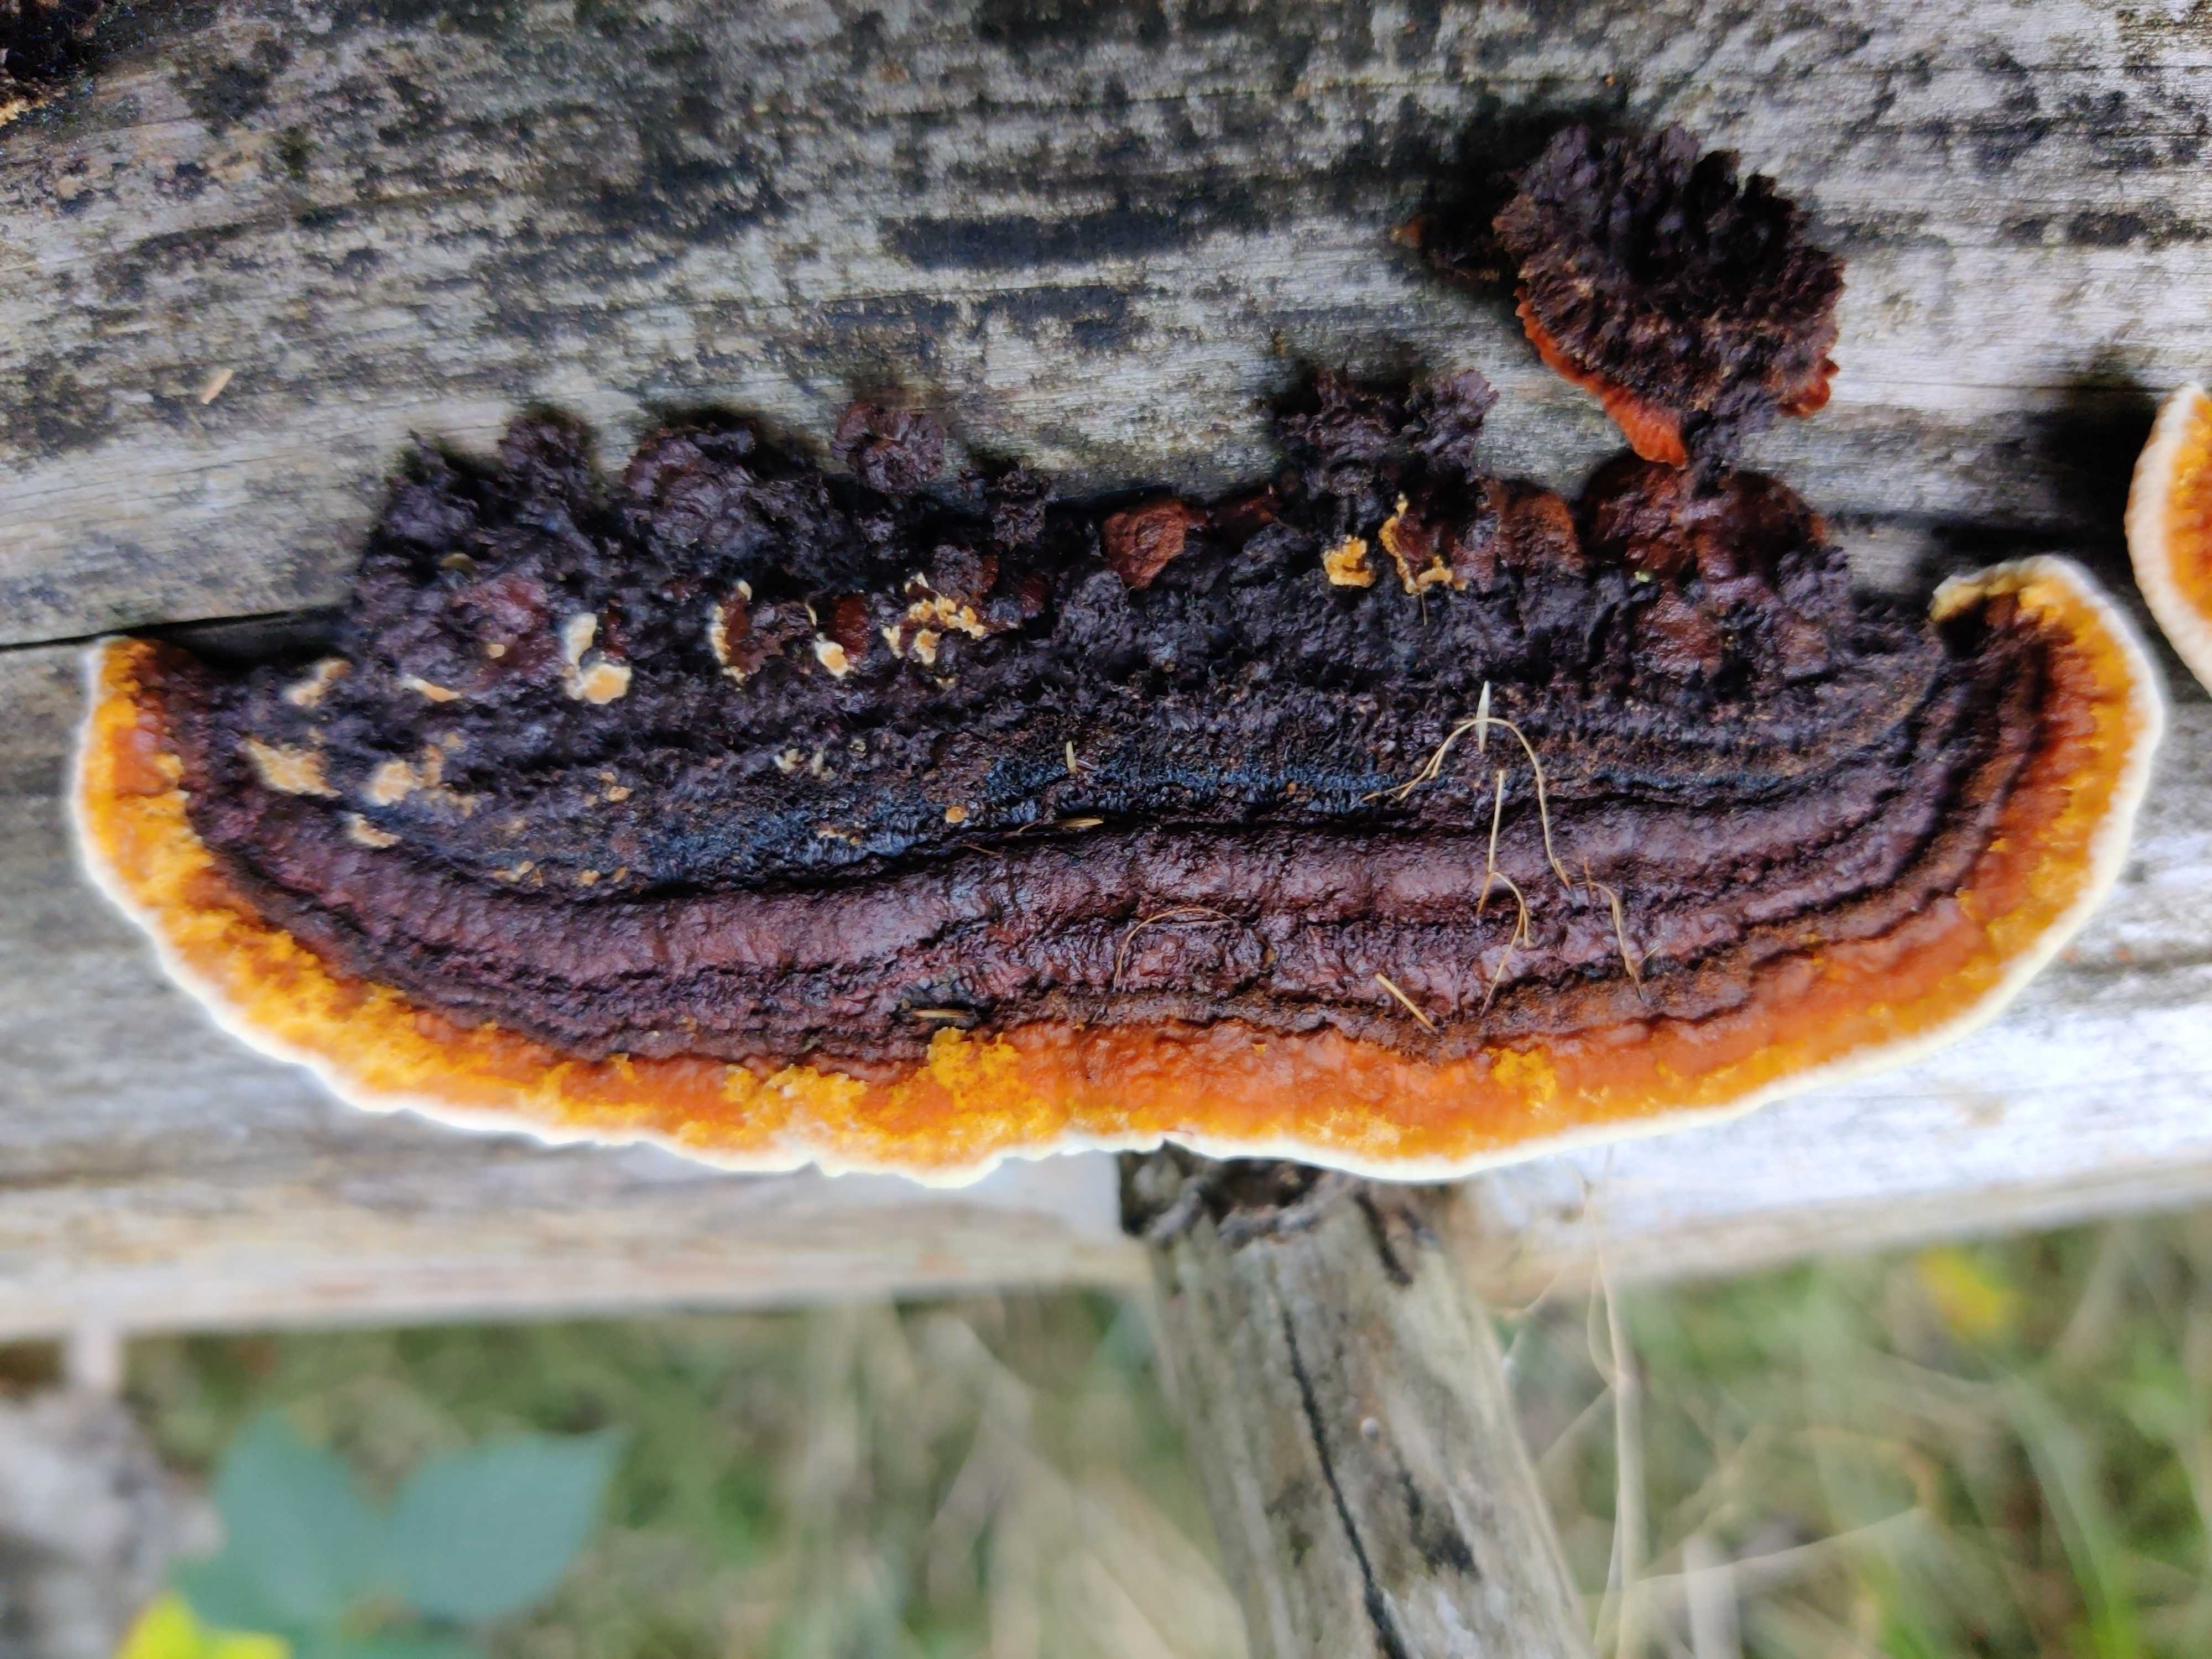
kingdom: Fungi
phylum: Basidiomycota
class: Agaricomycetes
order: Gloeophyllales
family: Gloeophyllaceae
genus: Gloeophyllum
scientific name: Gloeophyllum sepiarium
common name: fyrre-korkhat
